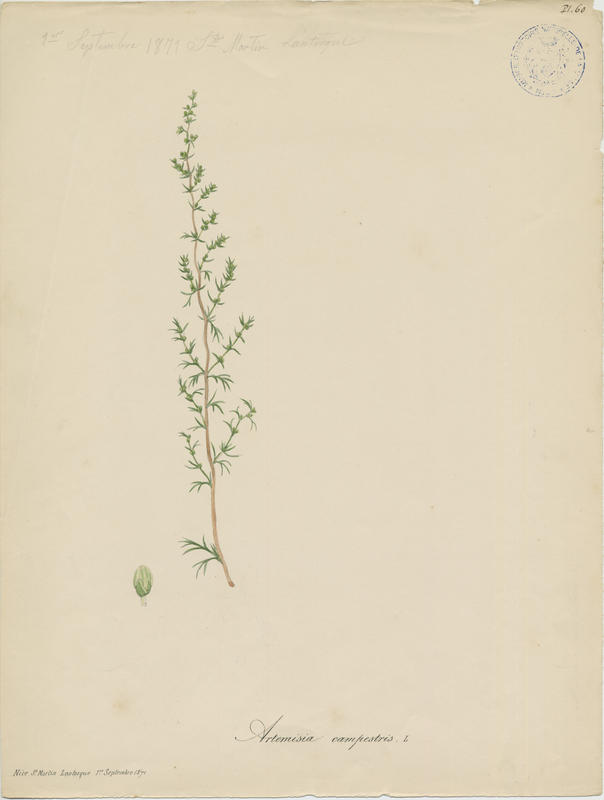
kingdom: Plantae
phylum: Tracheophyta
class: Magnoliopsida
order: Asterales
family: Asteraceae
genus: Artemisia
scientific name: Artemisia campestris
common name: Field wormwood
